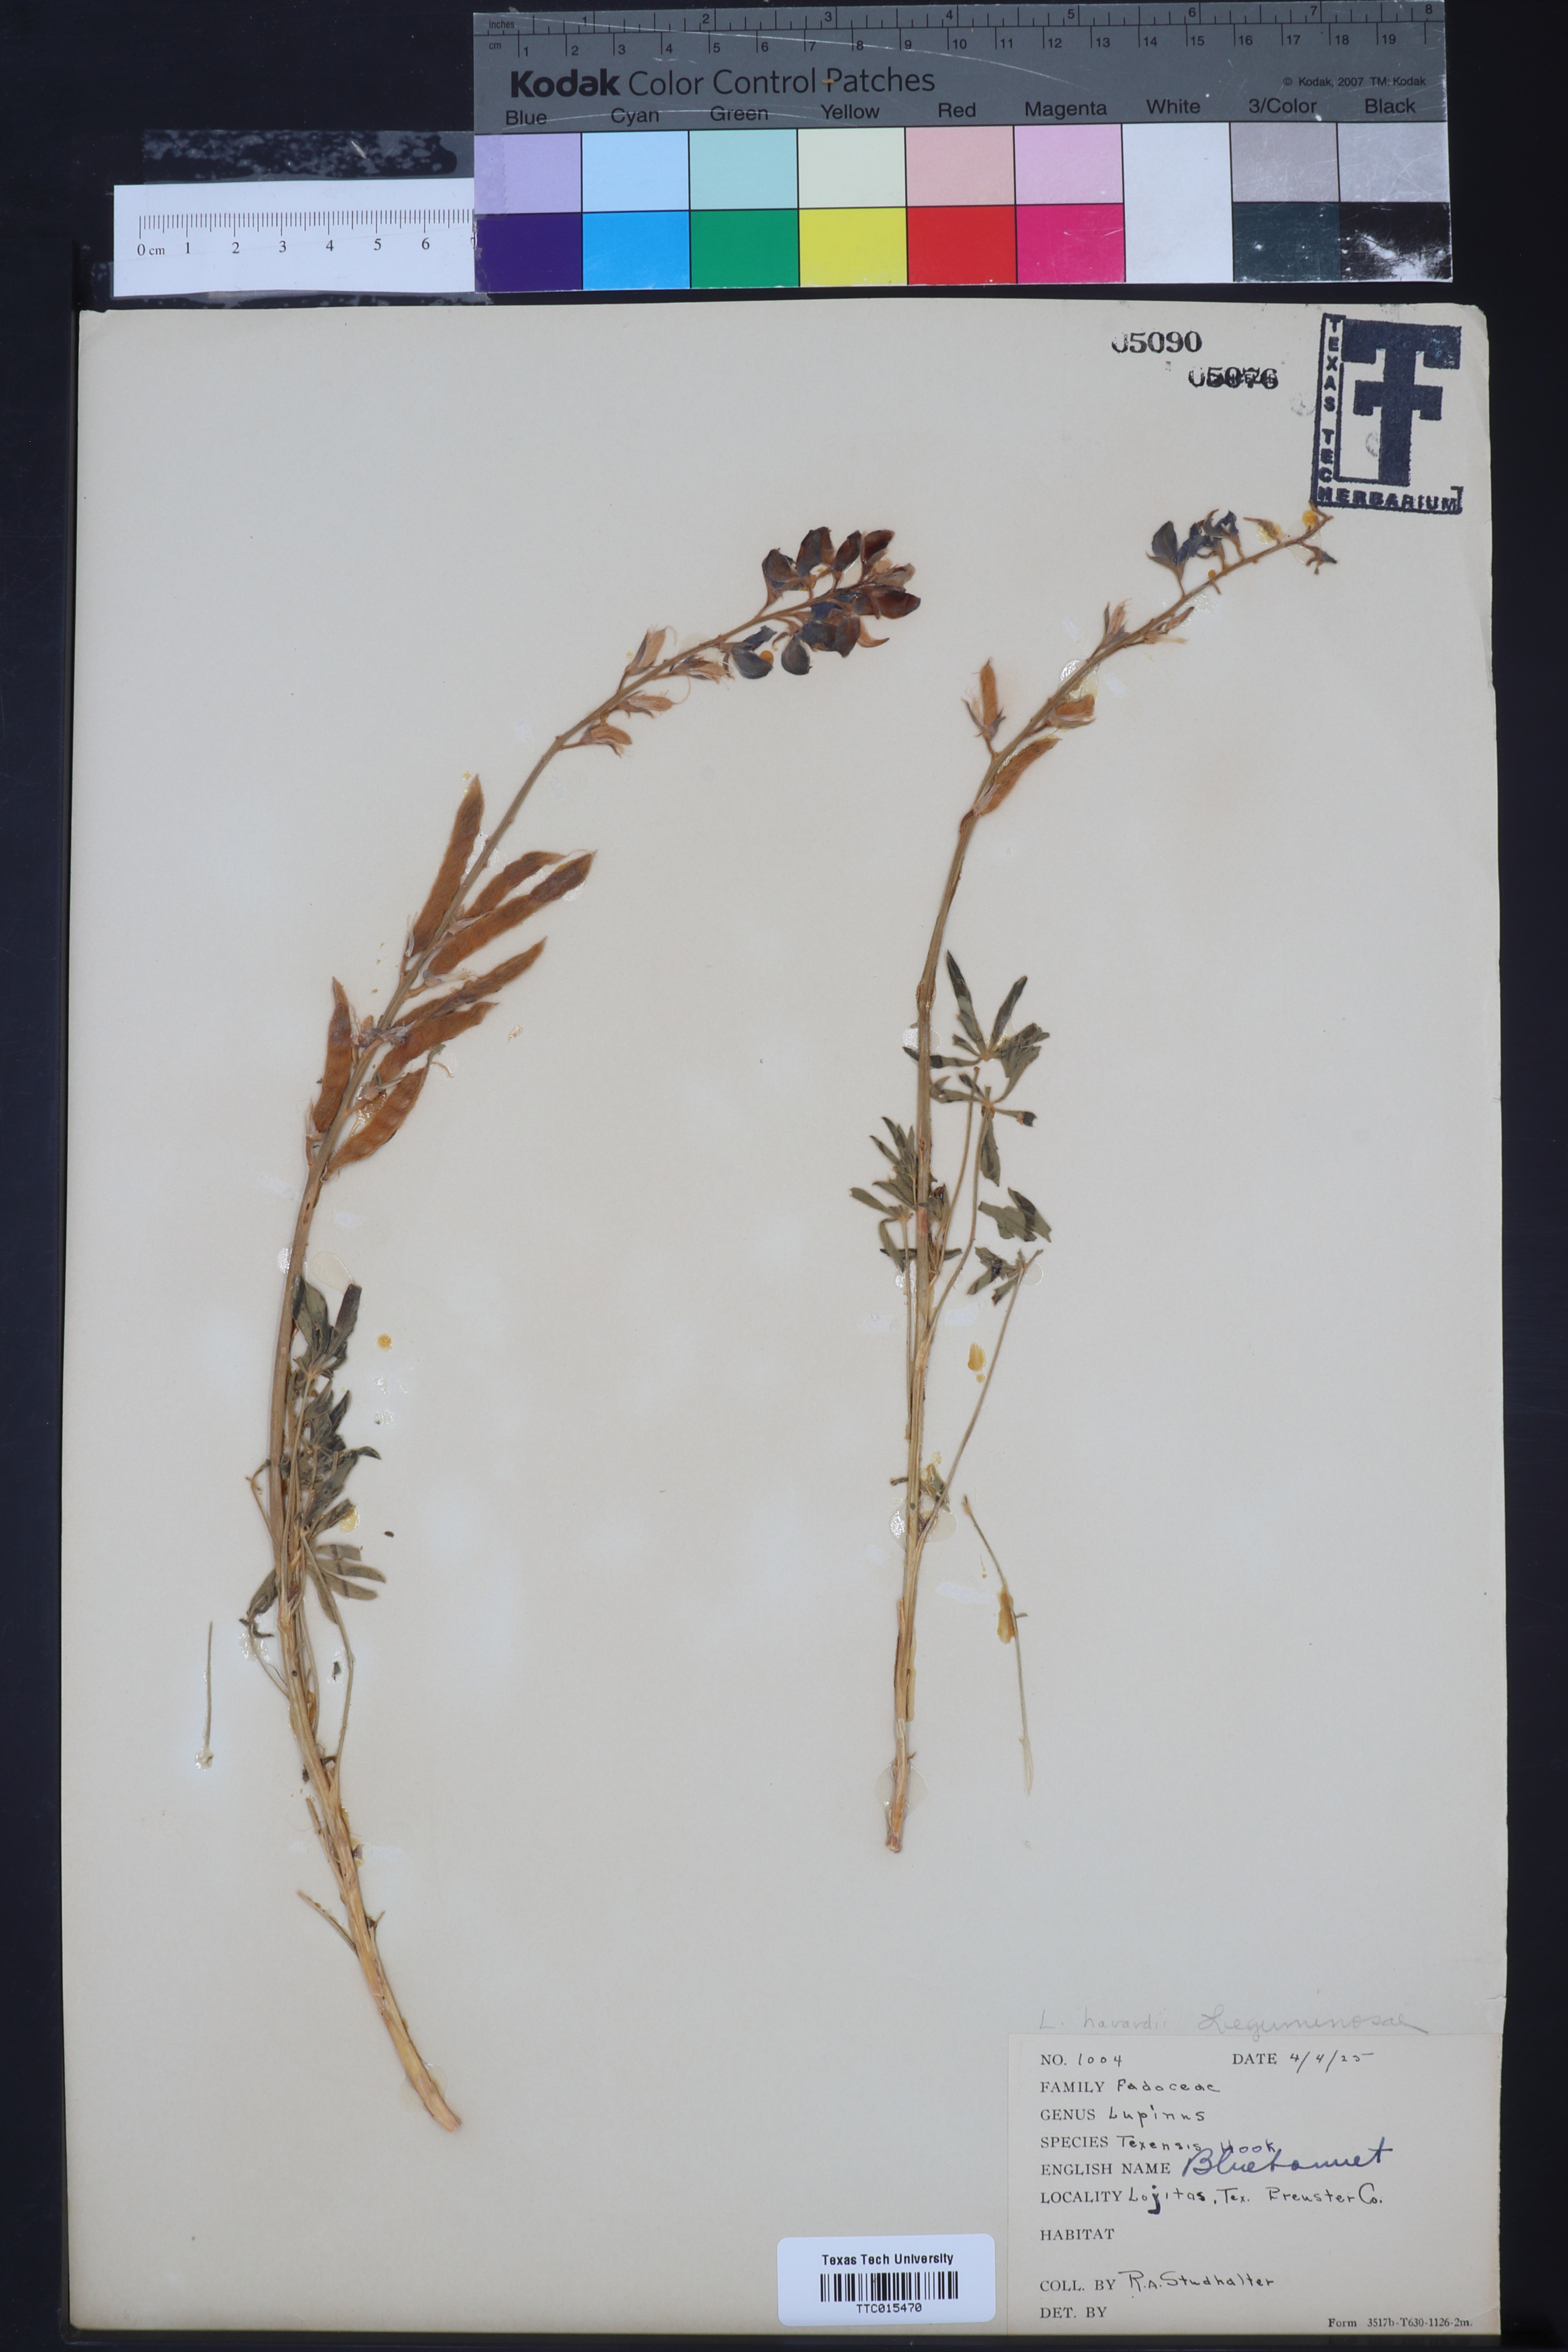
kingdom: Plantae
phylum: Tracheophyta
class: Magnoliopsida
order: Fabales
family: Fabaceae
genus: Lupinus
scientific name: Lupinus texensis
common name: Texas bluebonnet
